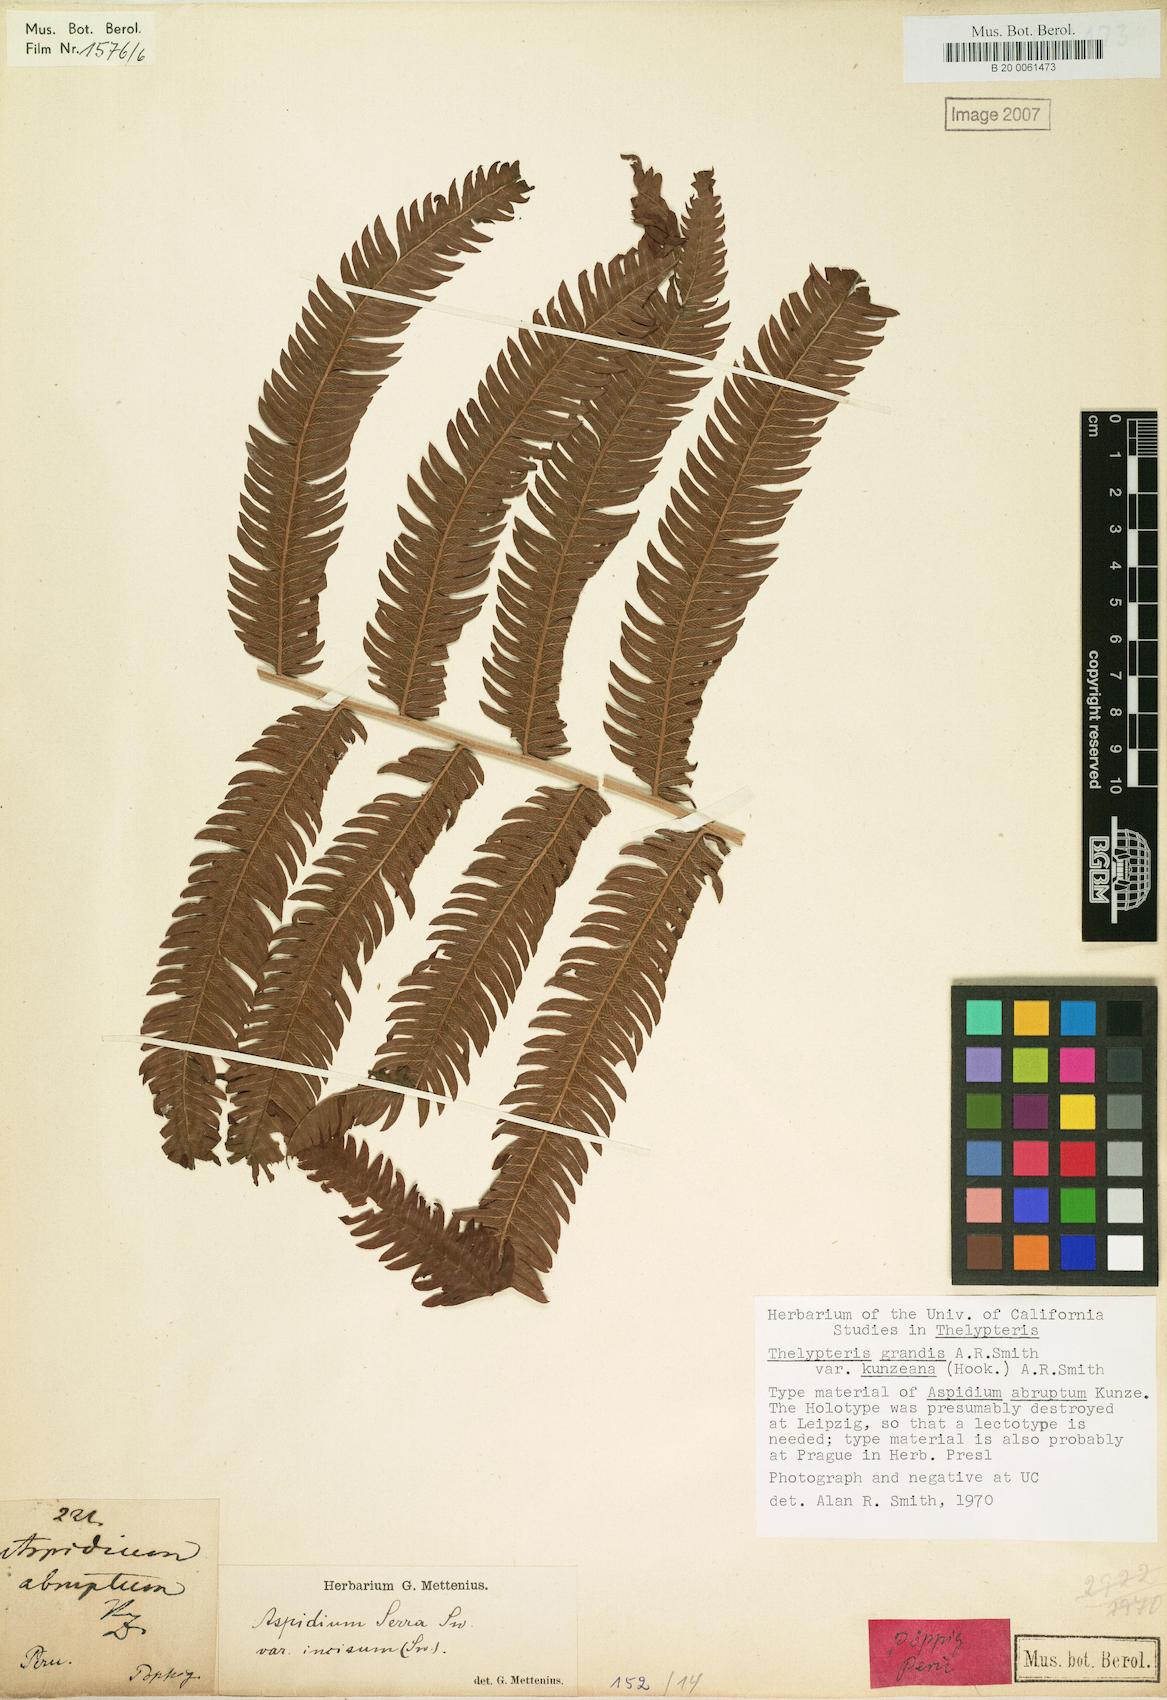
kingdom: Plantae
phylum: Tracheophyta
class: Polypodiopsida
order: Polypodiales
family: Thelypteridaceae
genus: Pelazoneuron
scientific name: Pelazoneuron abruptum
